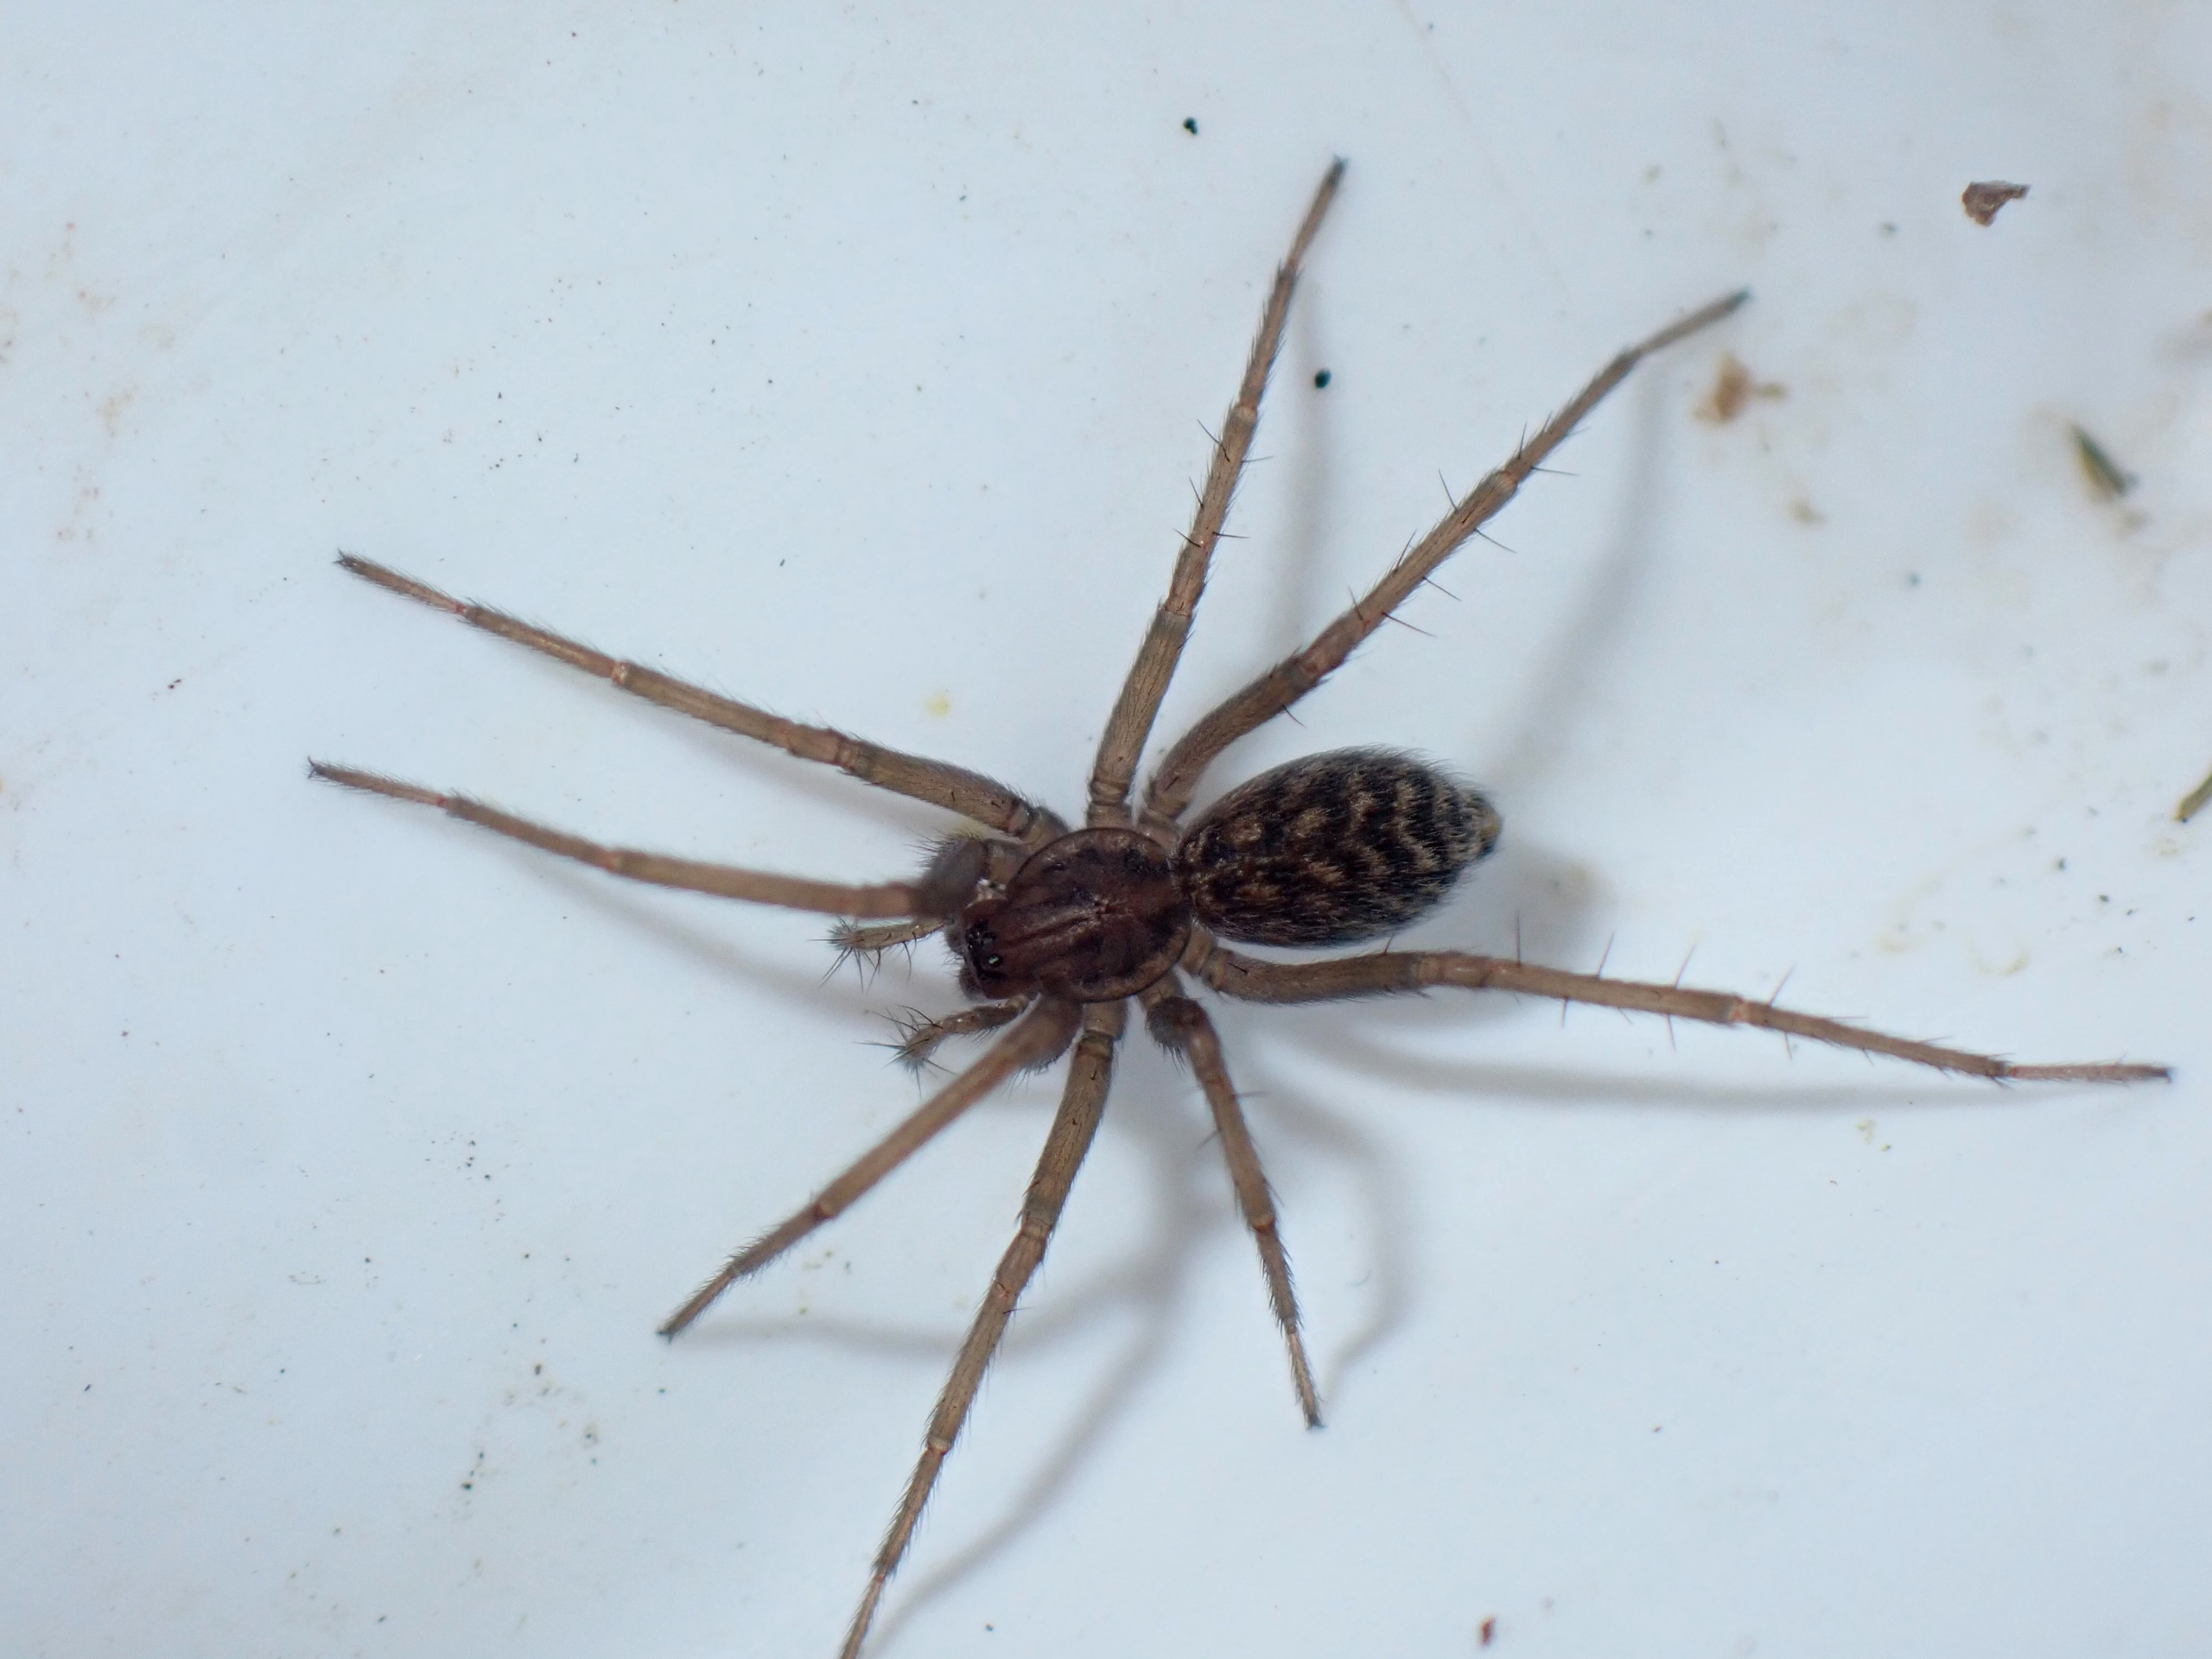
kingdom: Animalia
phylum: Arthropoda
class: Arachnida
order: Araneae
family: Agelenidae
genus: Eratigena
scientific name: Eratigena atrica
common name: Stor husedderkop
